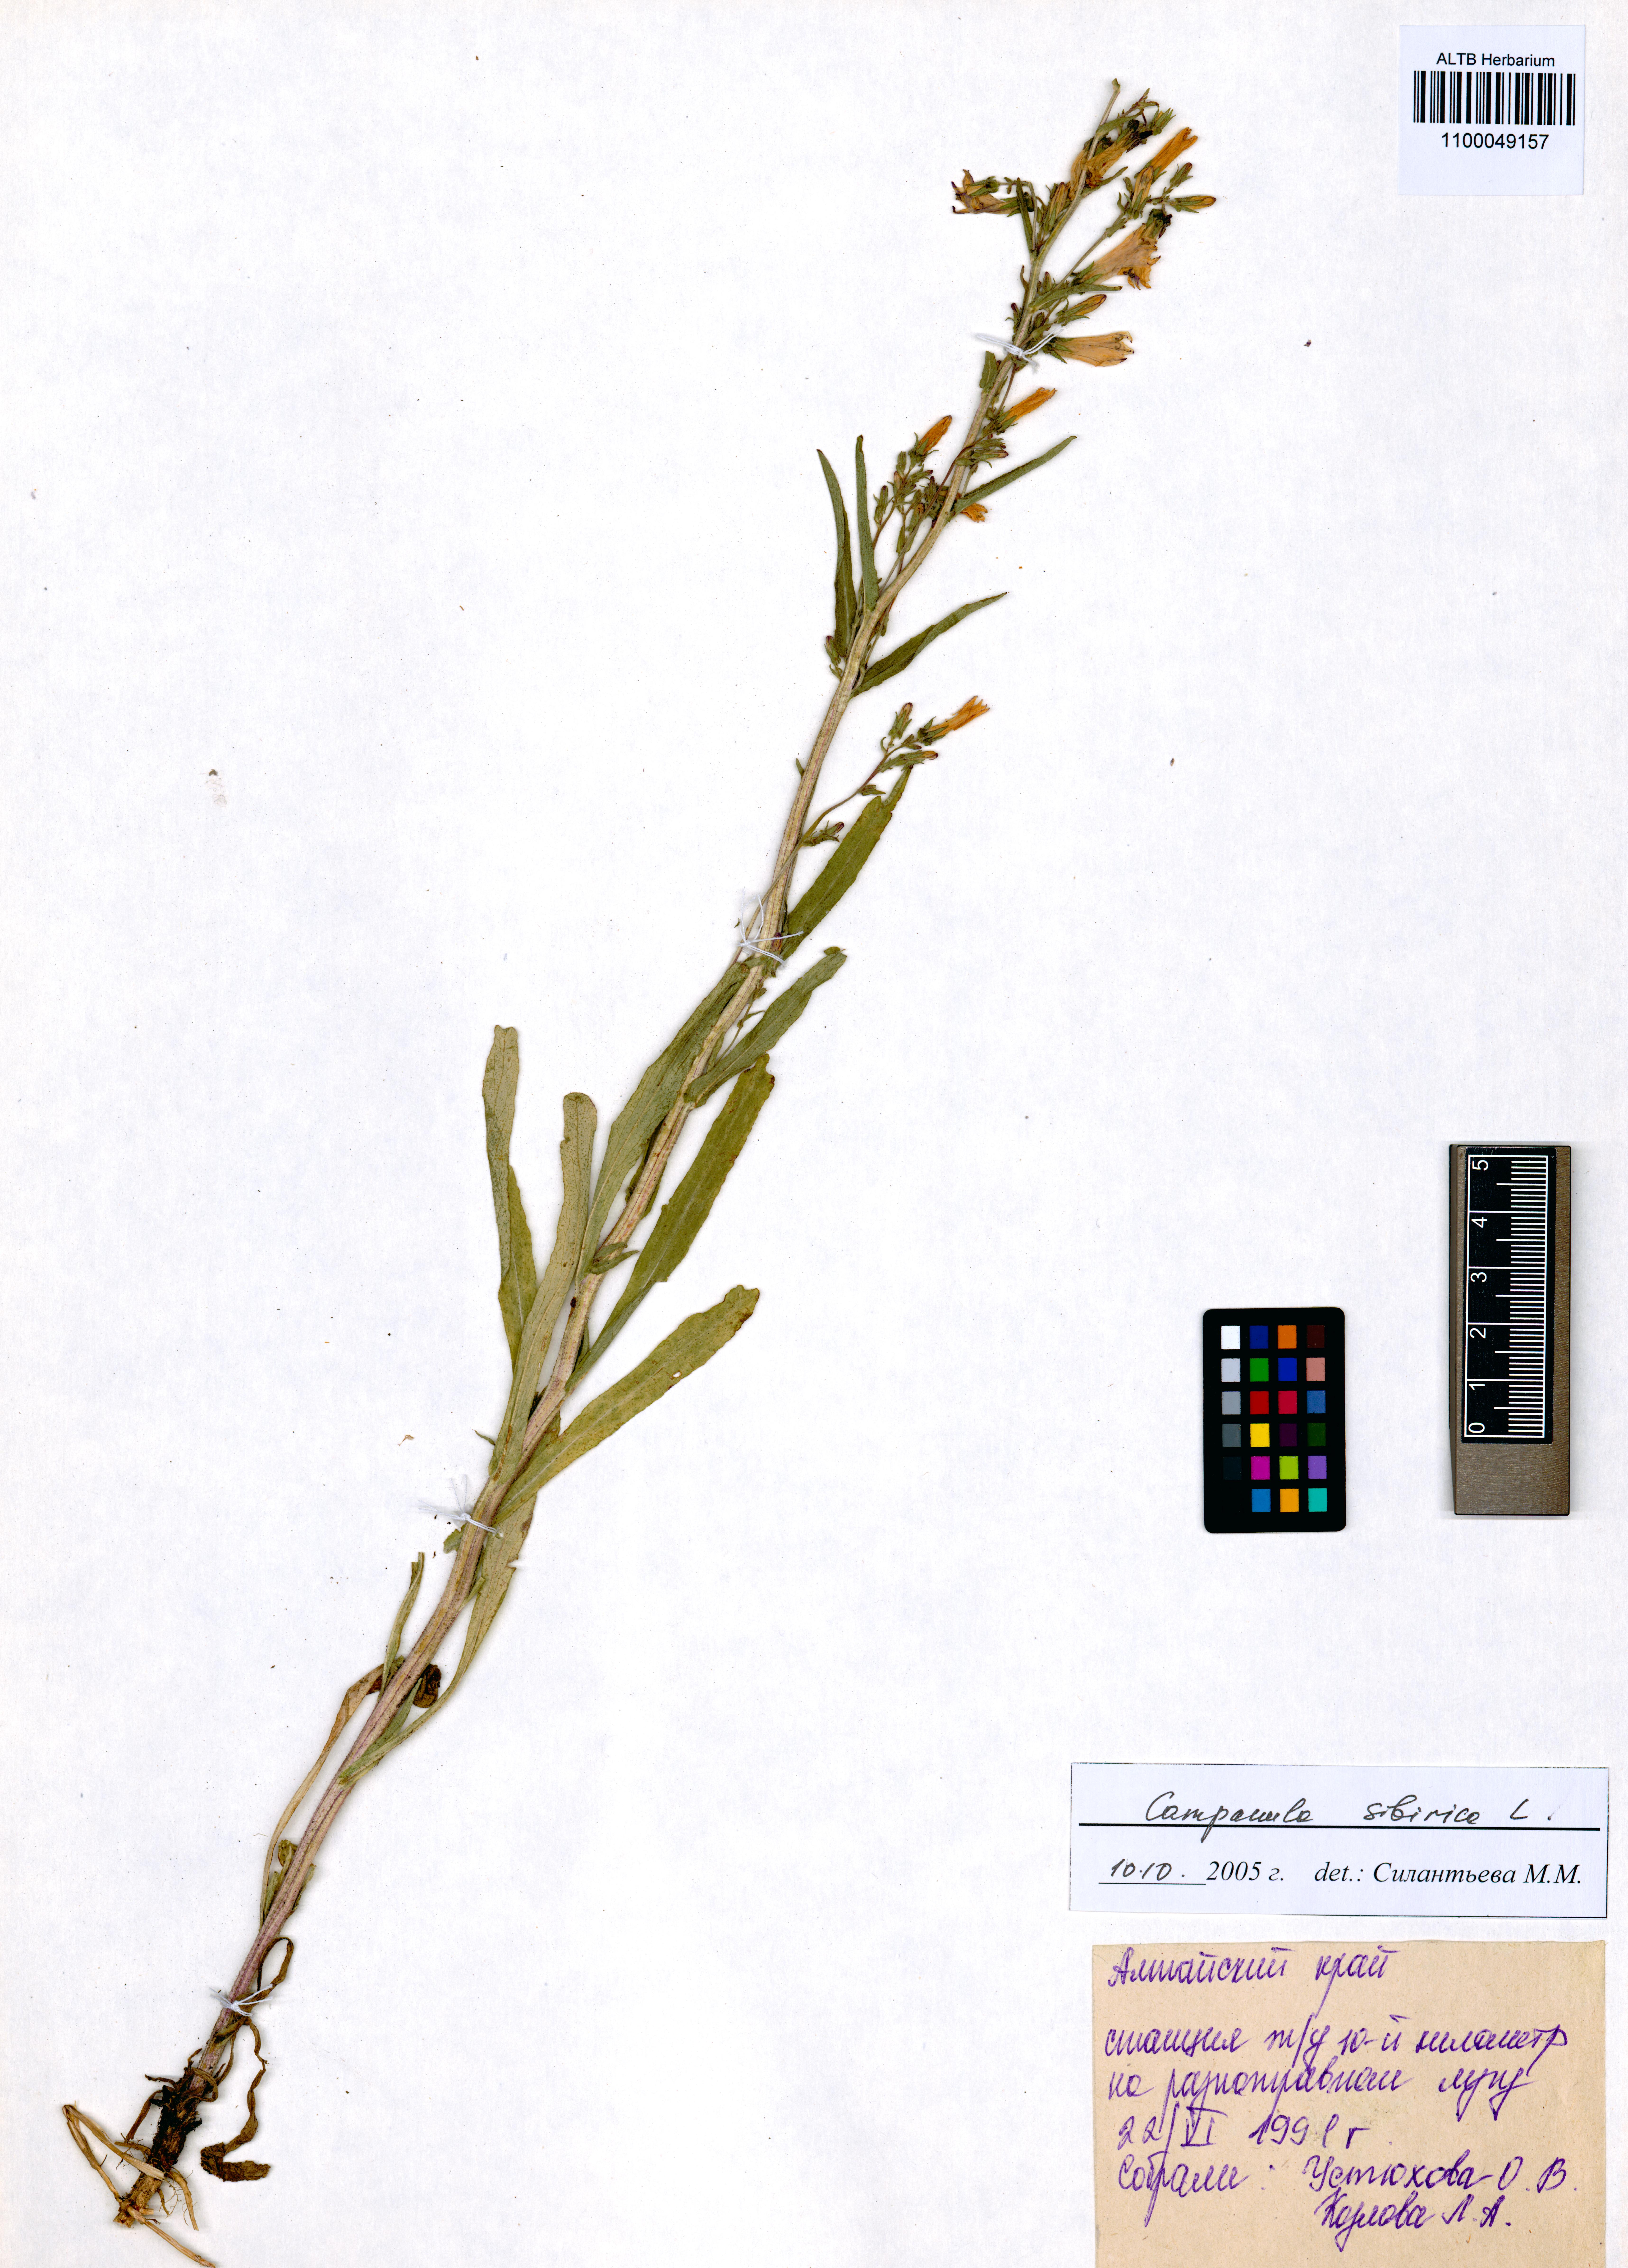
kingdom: Plantae
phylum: Tracheophyta
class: Magnoliopsida
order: Asterales
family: Campanulaceae
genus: Campanula
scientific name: Campanula sibirica
